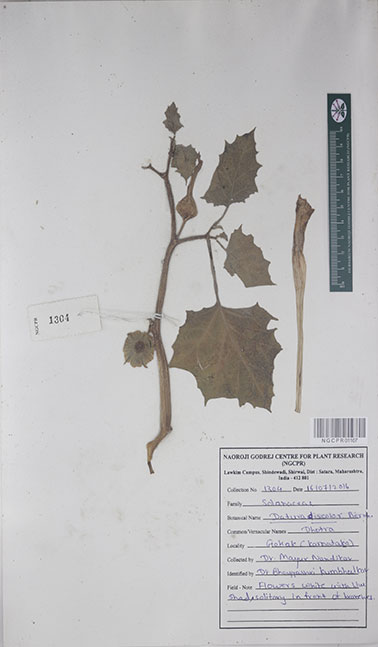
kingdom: Plantae
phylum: Tracheophyta
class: Magnoliopsida
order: Solanales
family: Solanaceae
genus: Datura
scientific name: Datura discolor
